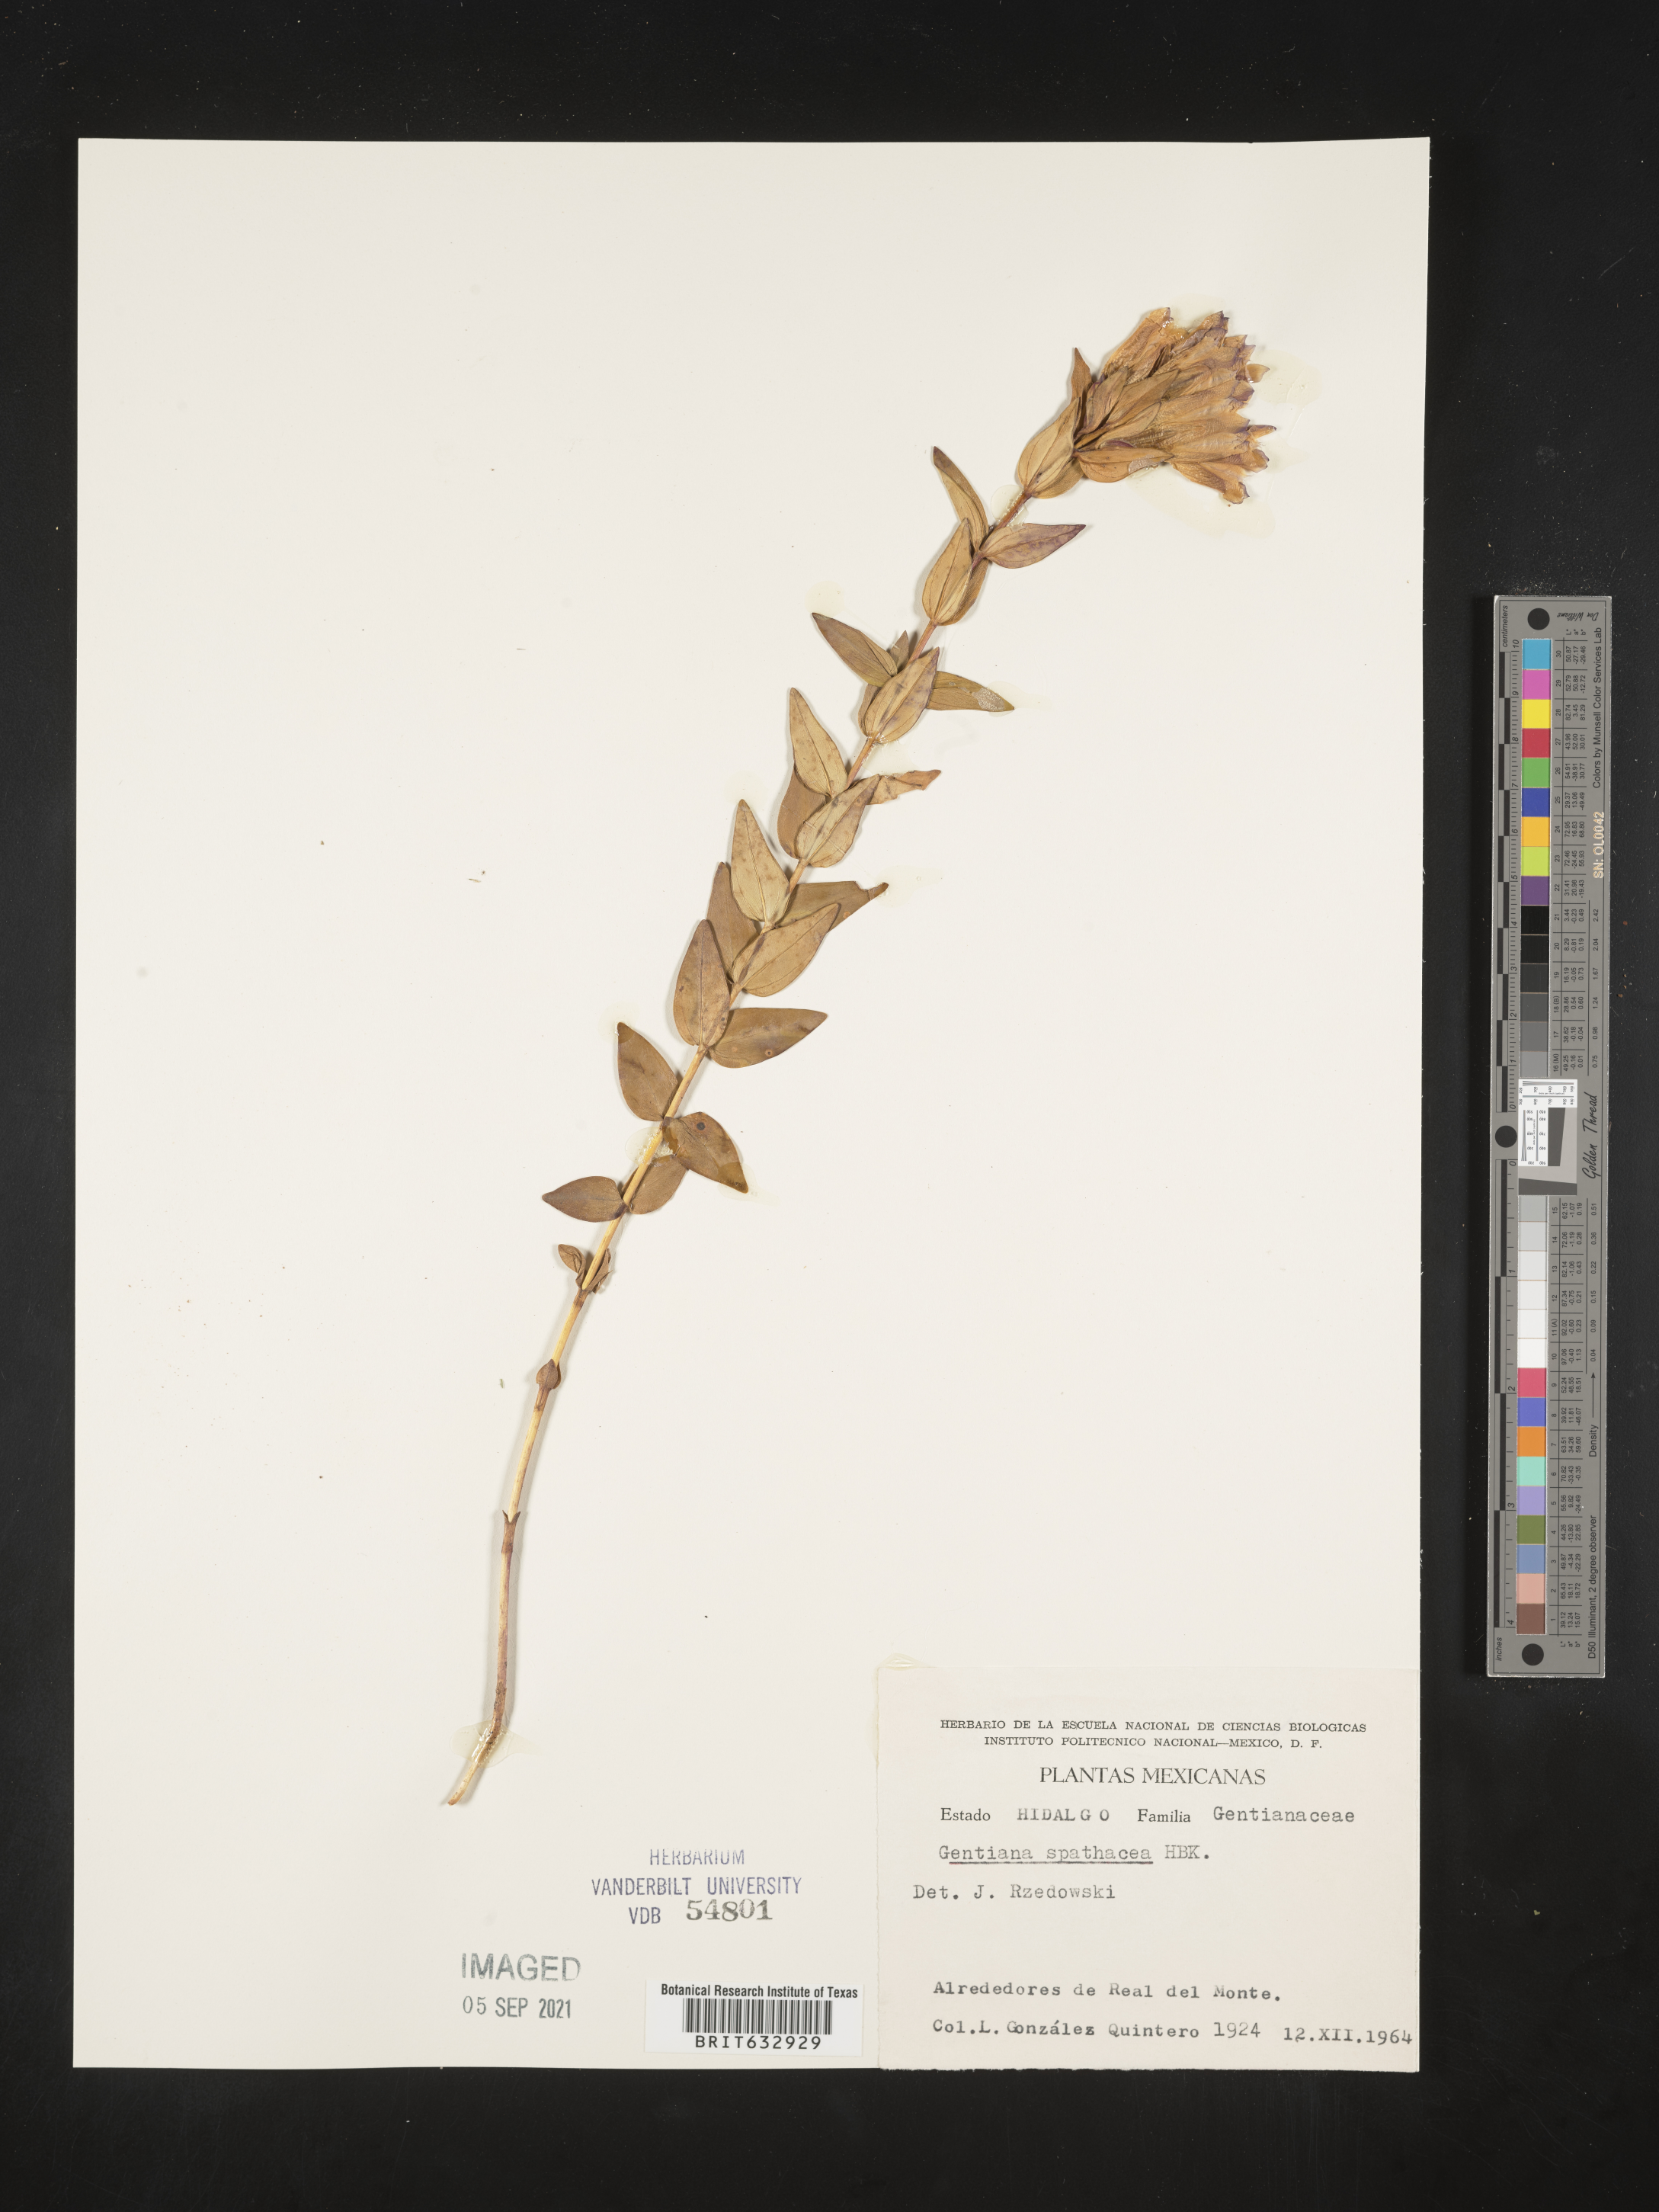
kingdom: Plantae
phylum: Tracheophyta
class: Magnoliopsida
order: Gentianales
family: Gentianaceae
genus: Gentiana
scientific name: Gentiana
